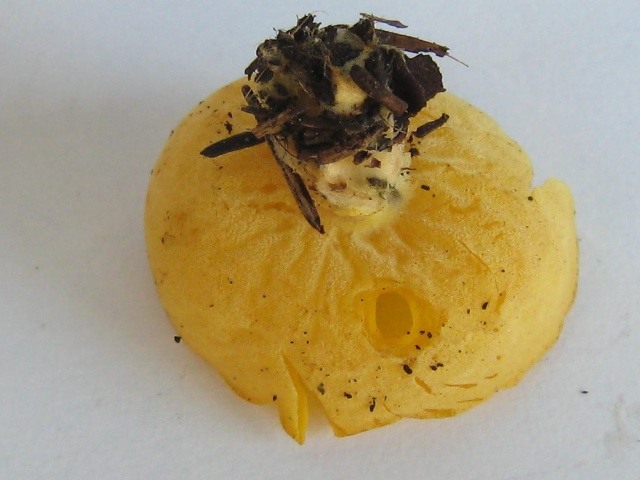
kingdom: Fungi
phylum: Ascomycota
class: Pezizomycetes
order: Pezizales
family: Pyronemataceae
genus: Sowerbyella
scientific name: Sowerbyella imperialis
